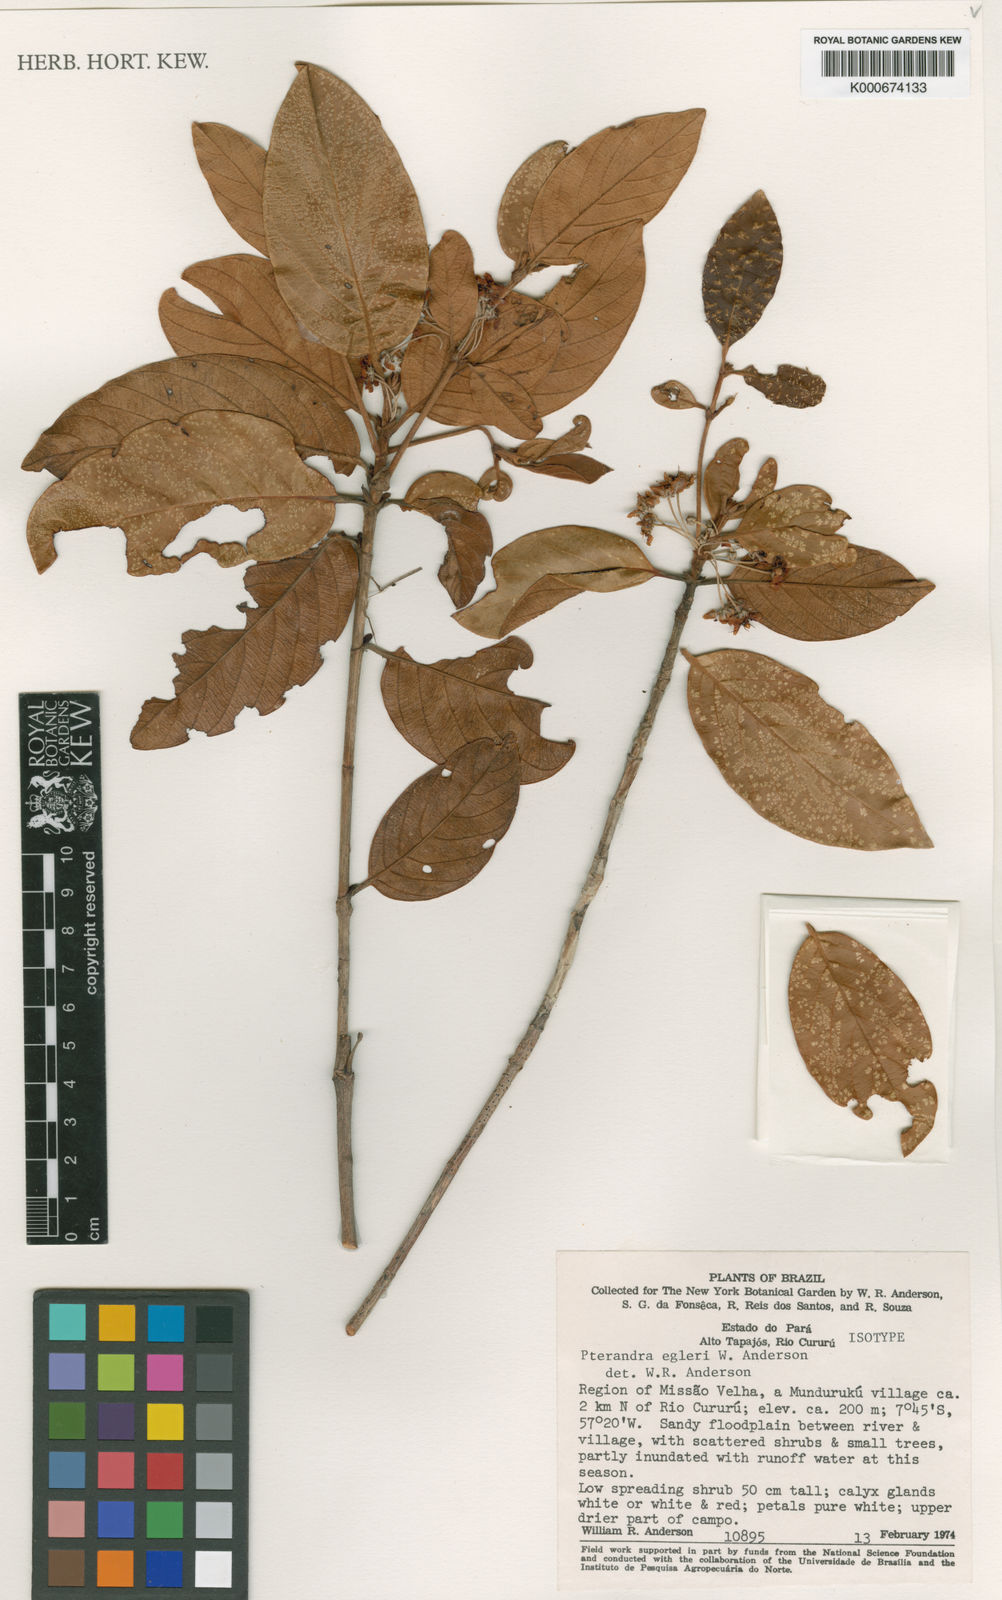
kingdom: Plantae
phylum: Tracheophyta
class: Magnoliopsida
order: Malpighiales
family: Malpighiaceae
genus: Pterandra
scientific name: Pterandra egleri
